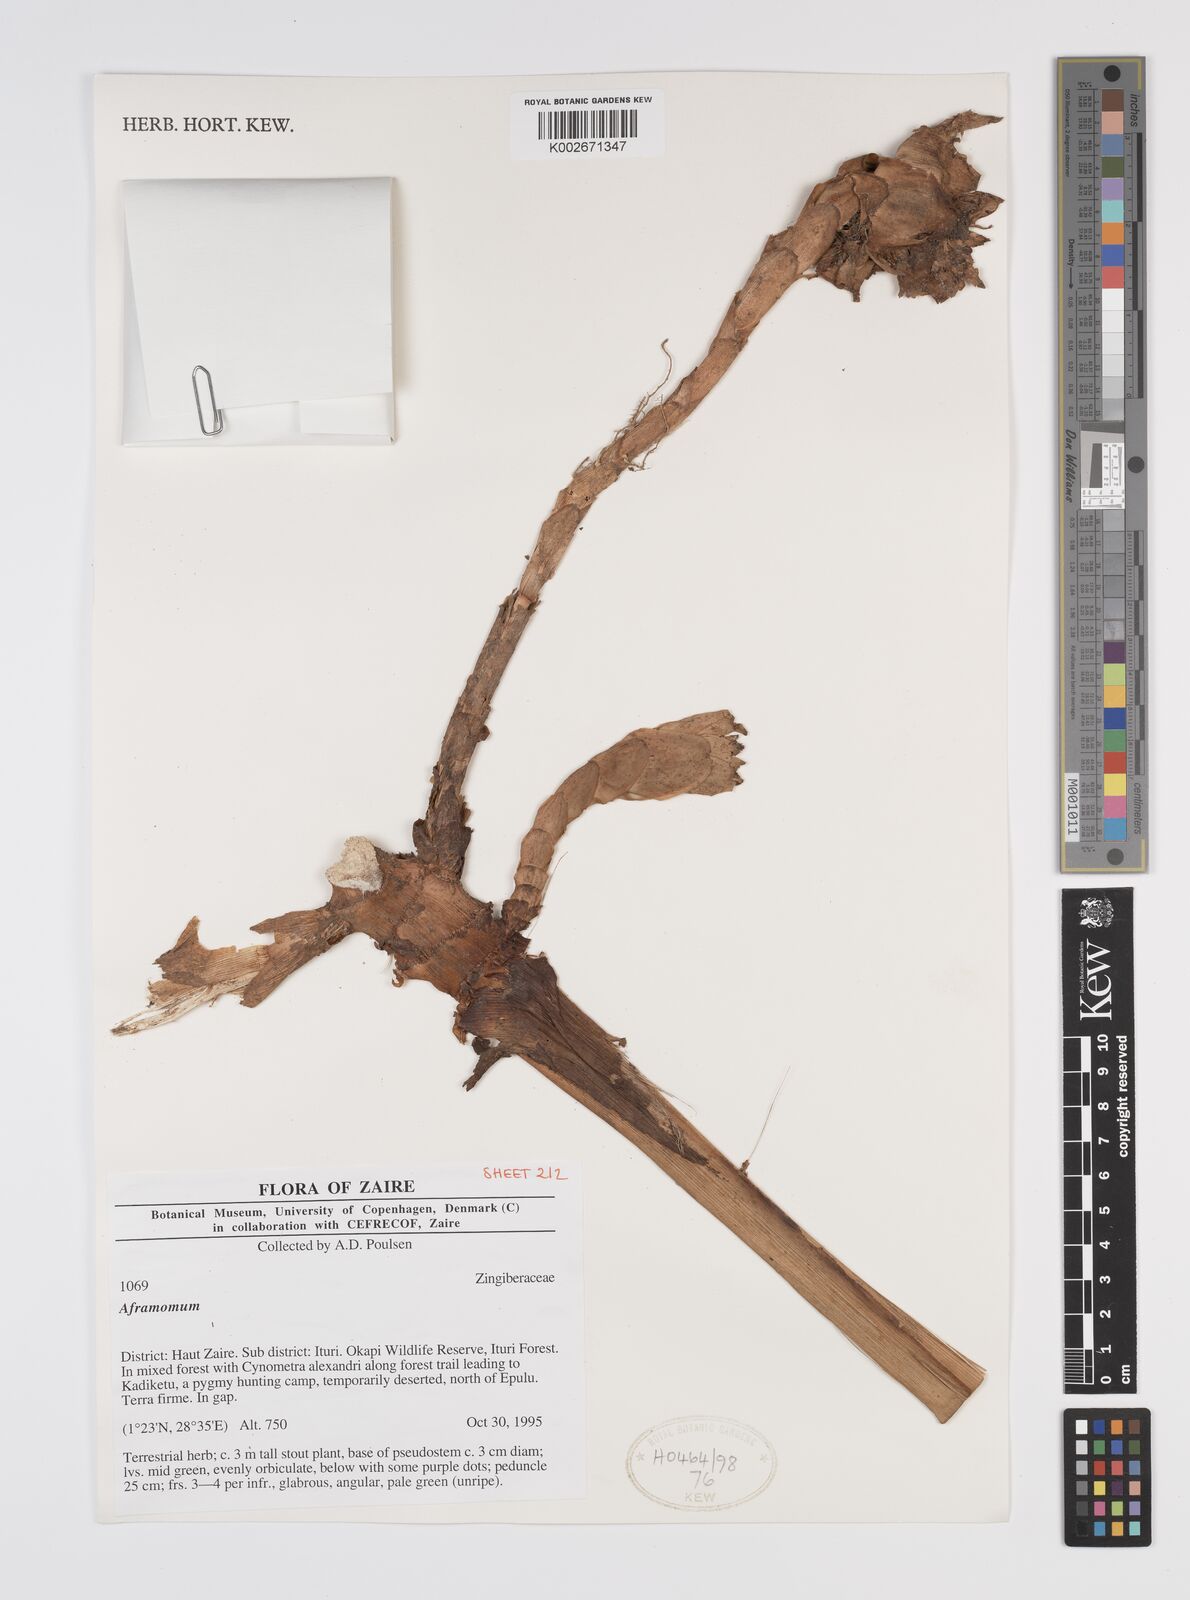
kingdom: Plantae
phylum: Tracheophyta
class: Liliopsida
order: Zingiberales
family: Zingiberaceae
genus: Aframomum
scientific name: Aframomum
